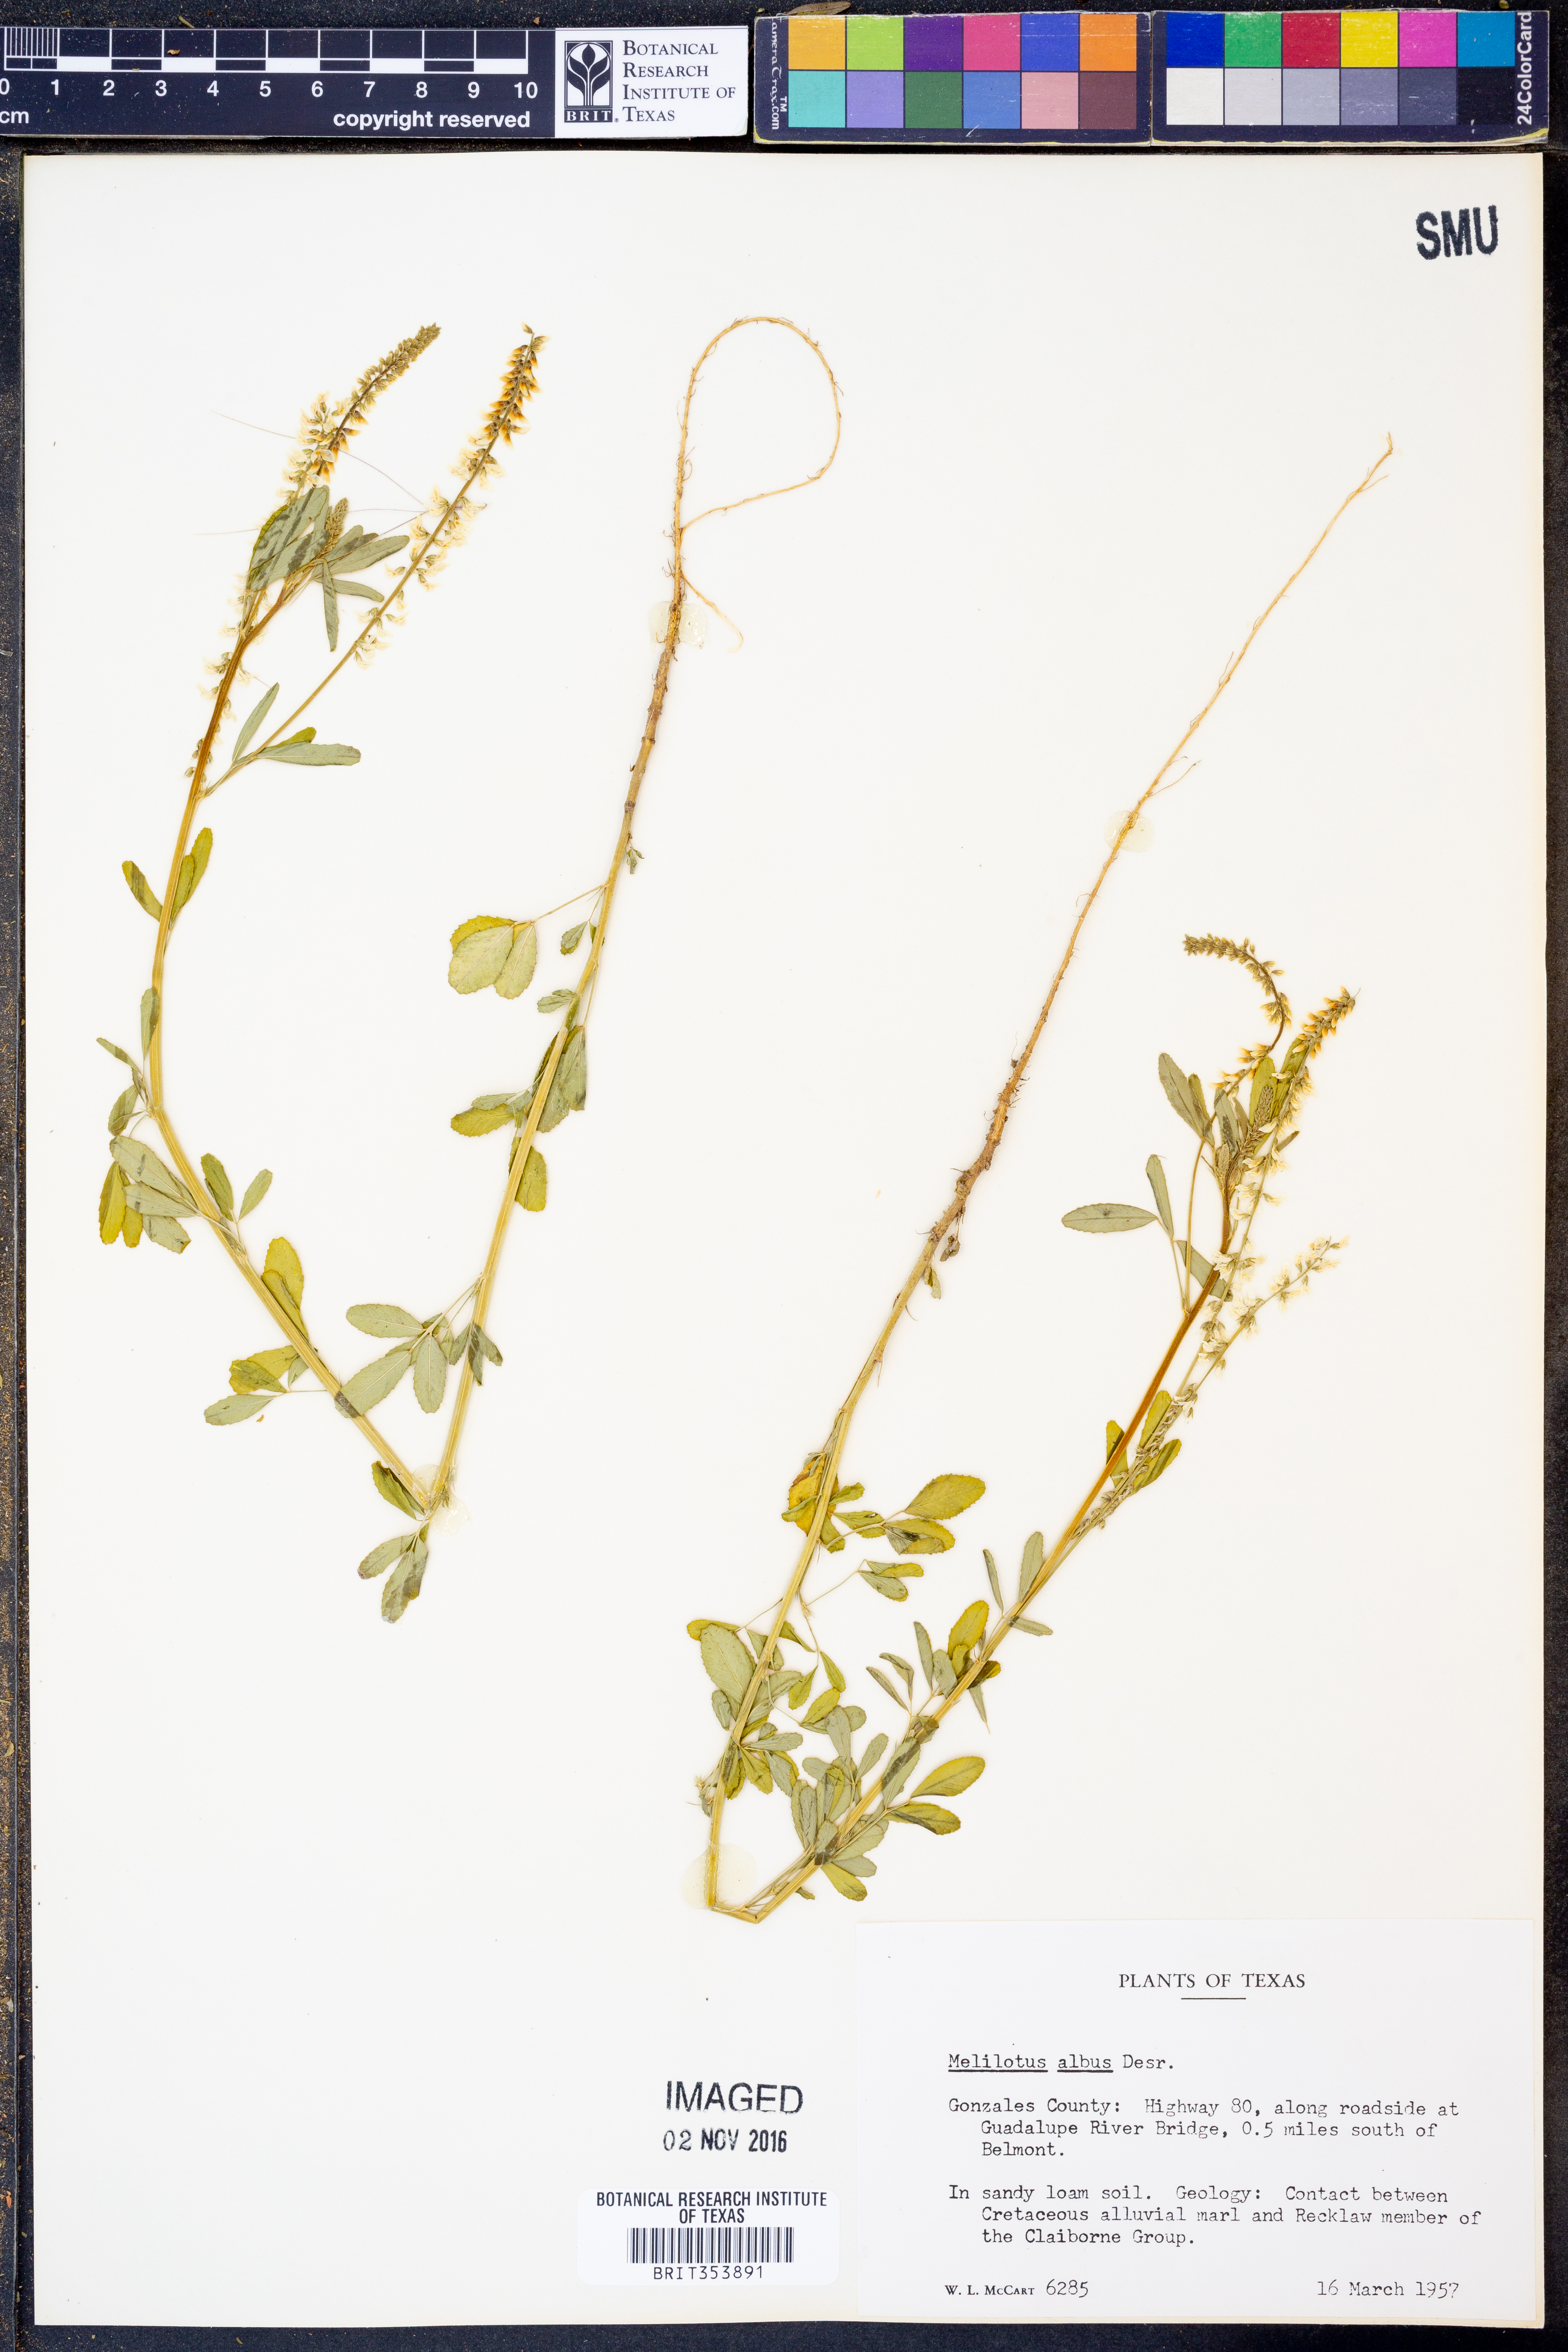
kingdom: Plantae
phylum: Tracheophyta
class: Magnoliopsida
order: Fabales
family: Fabaceae
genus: Melilotus
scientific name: Melilotus albus
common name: White melilot
